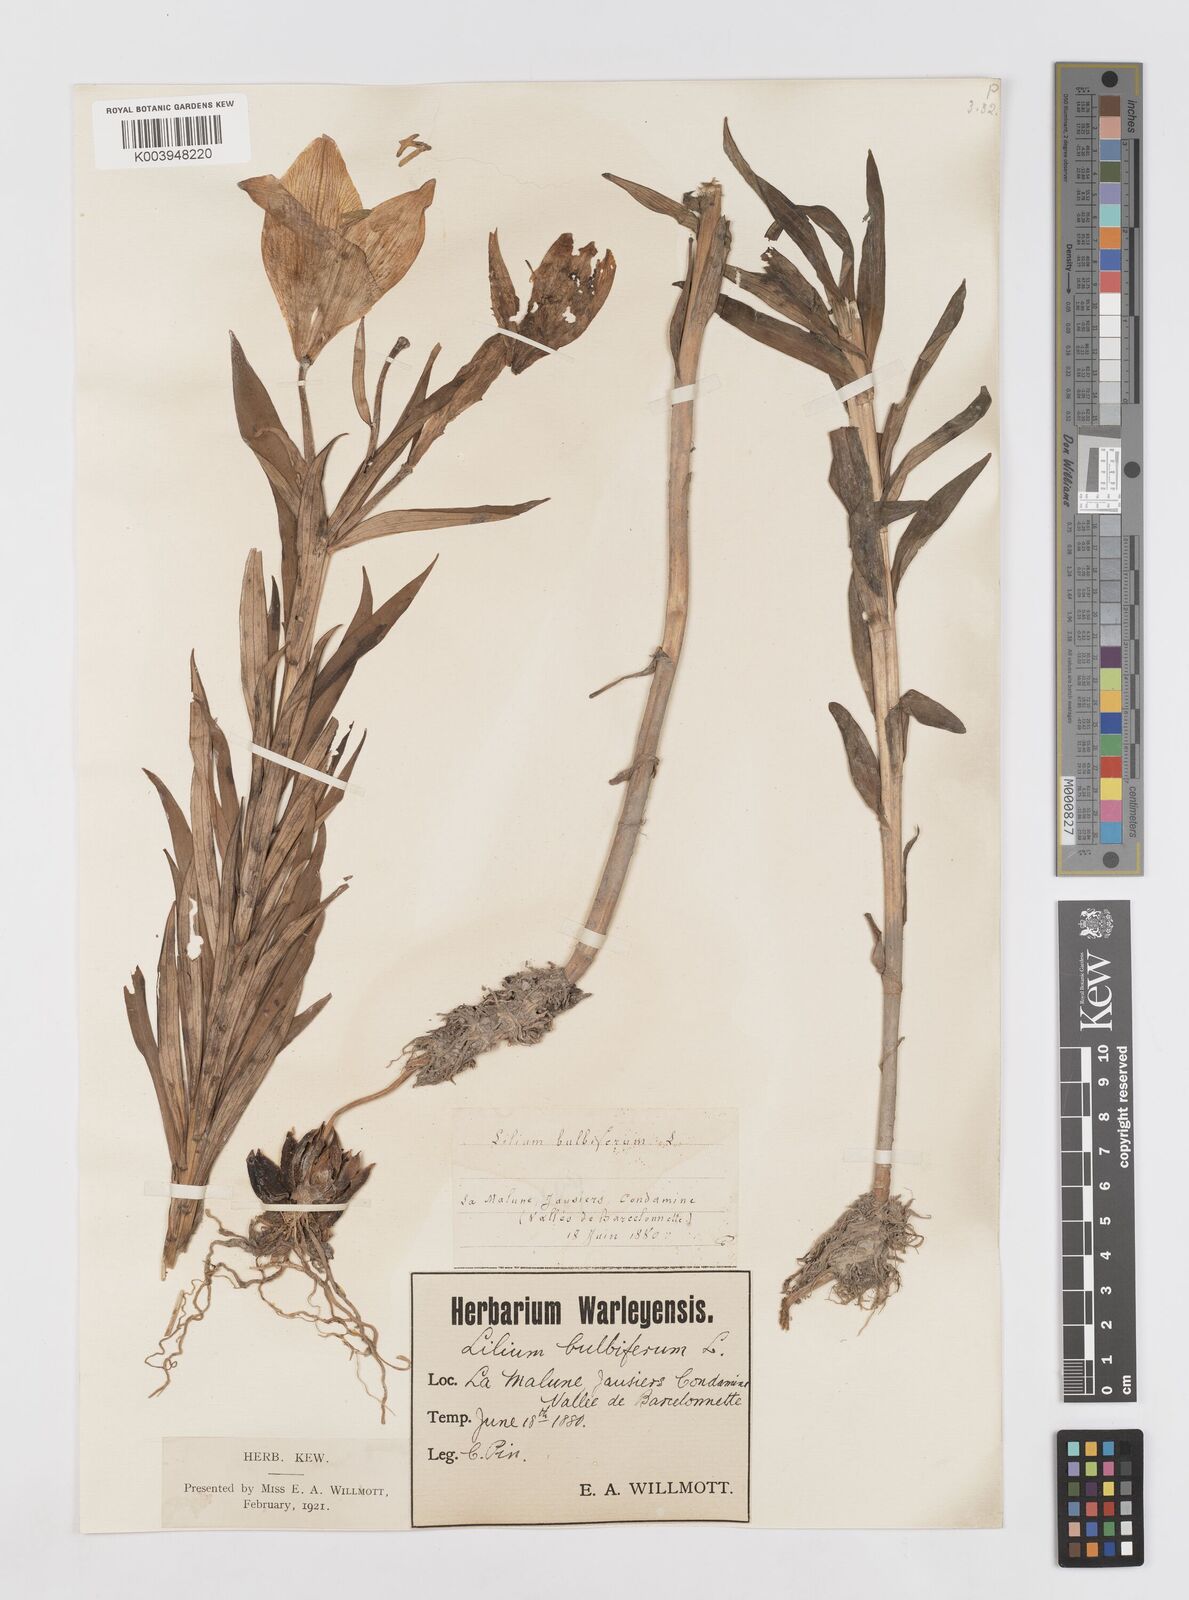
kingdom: Plantae
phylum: Tracheophyta
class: Liliopsida
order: Liliales
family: Liliaceae
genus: Lilium
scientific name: Lilium bulbiferum
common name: Orange lily
